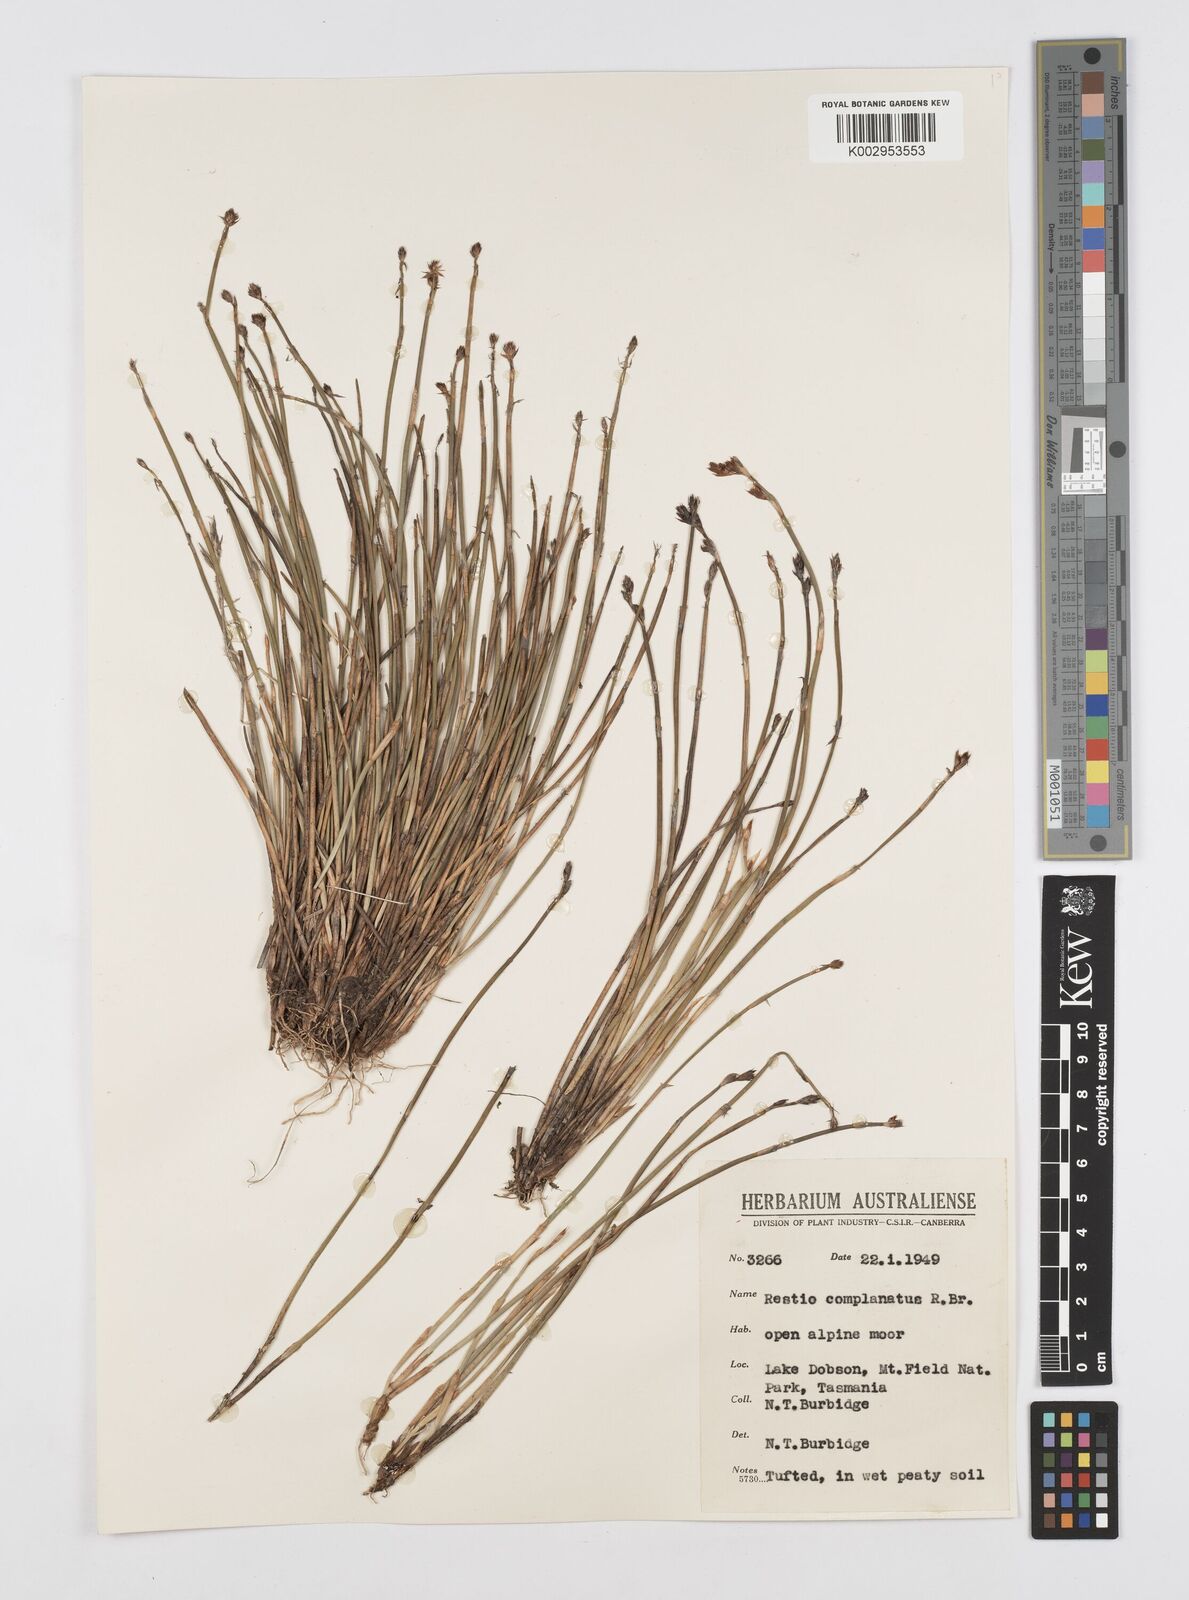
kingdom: Plantae
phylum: Tracheophyta
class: Liliopsida
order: Poales
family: Restionaceae
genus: Eurychorda
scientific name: Eurychorda complanata
